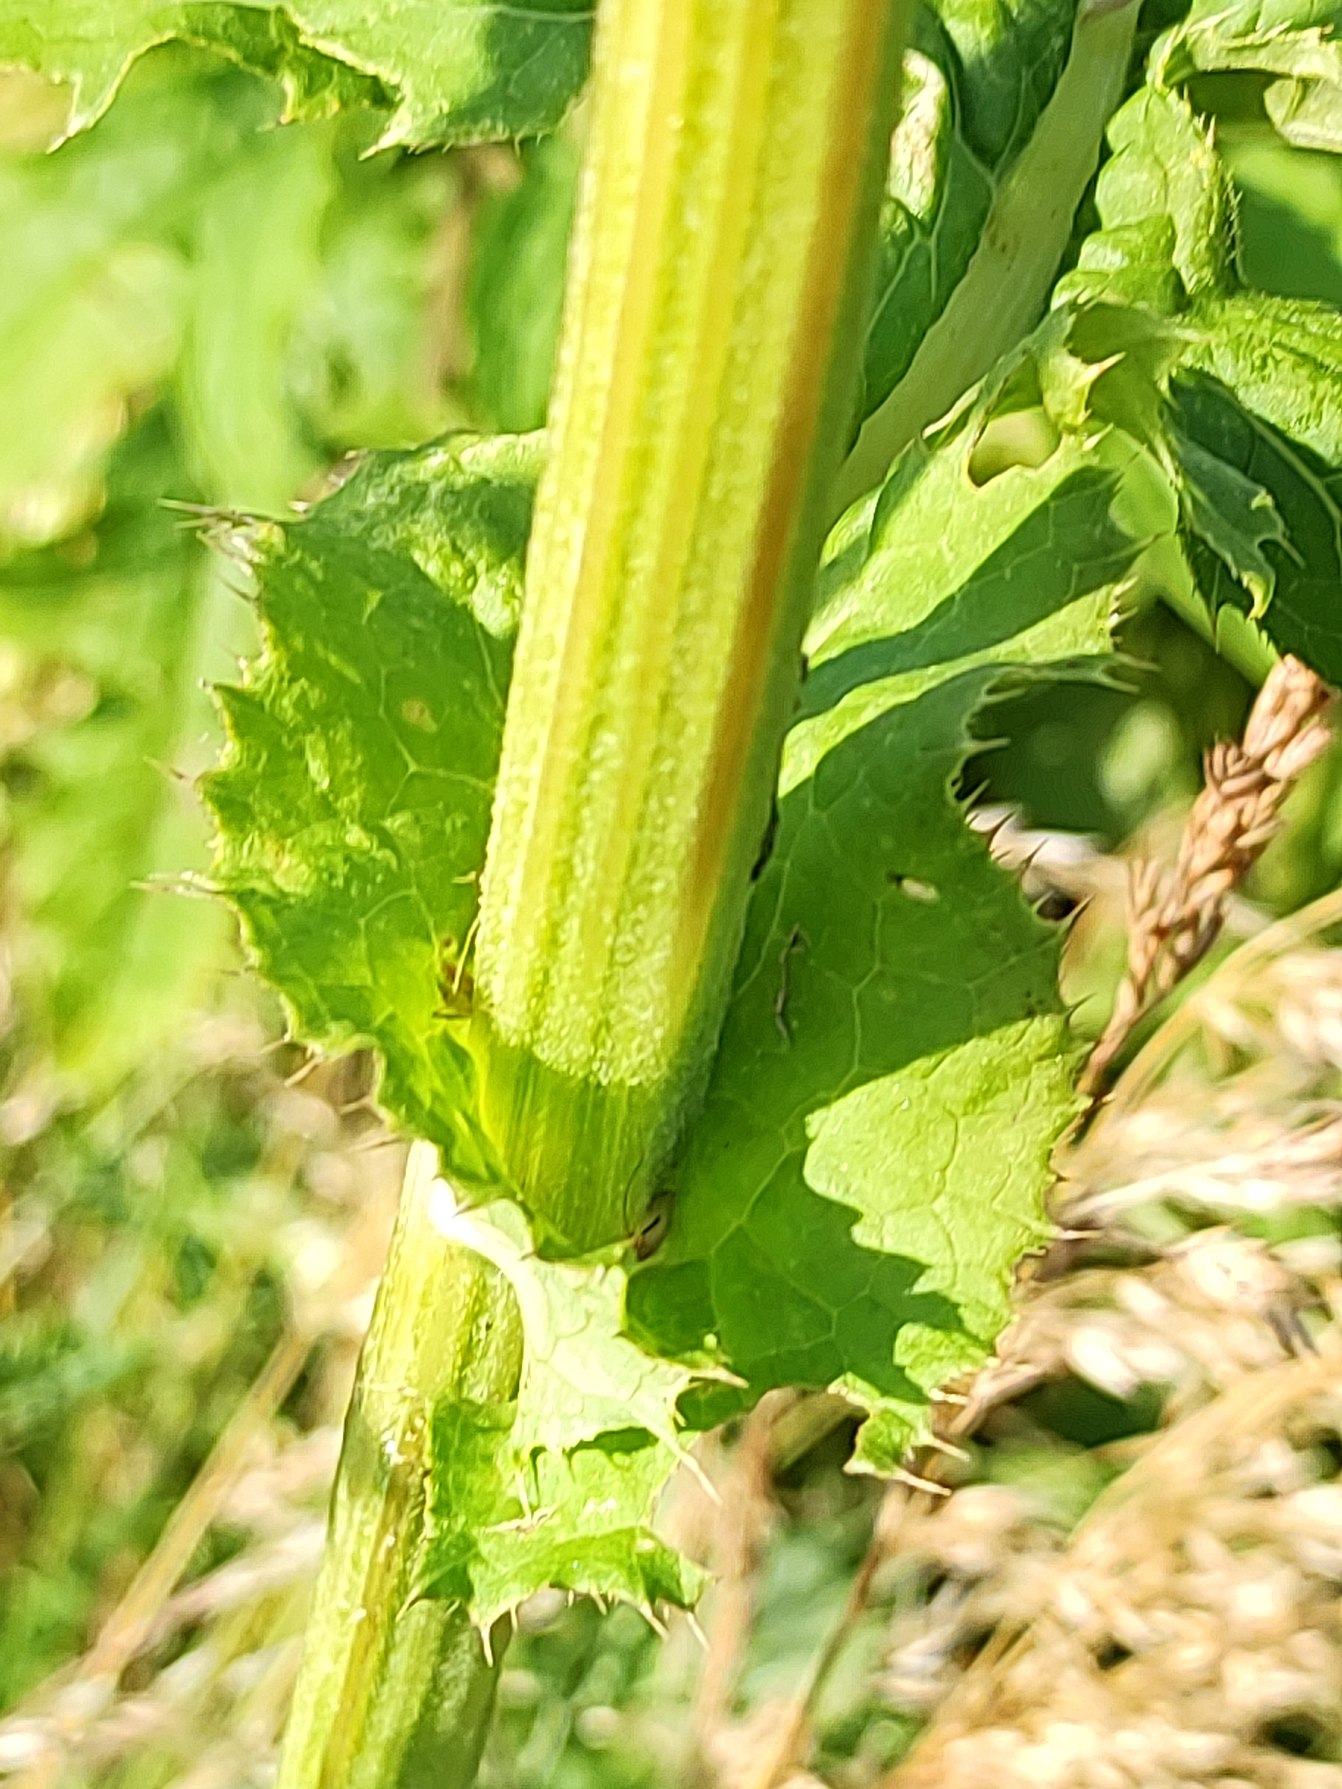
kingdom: Plantae
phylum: Tracheophyta
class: Magnoliopsida
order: Asterales
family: Asteraceae
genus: Cirsium
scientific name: Cirsium oleraceum
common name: Kål-tidsel
